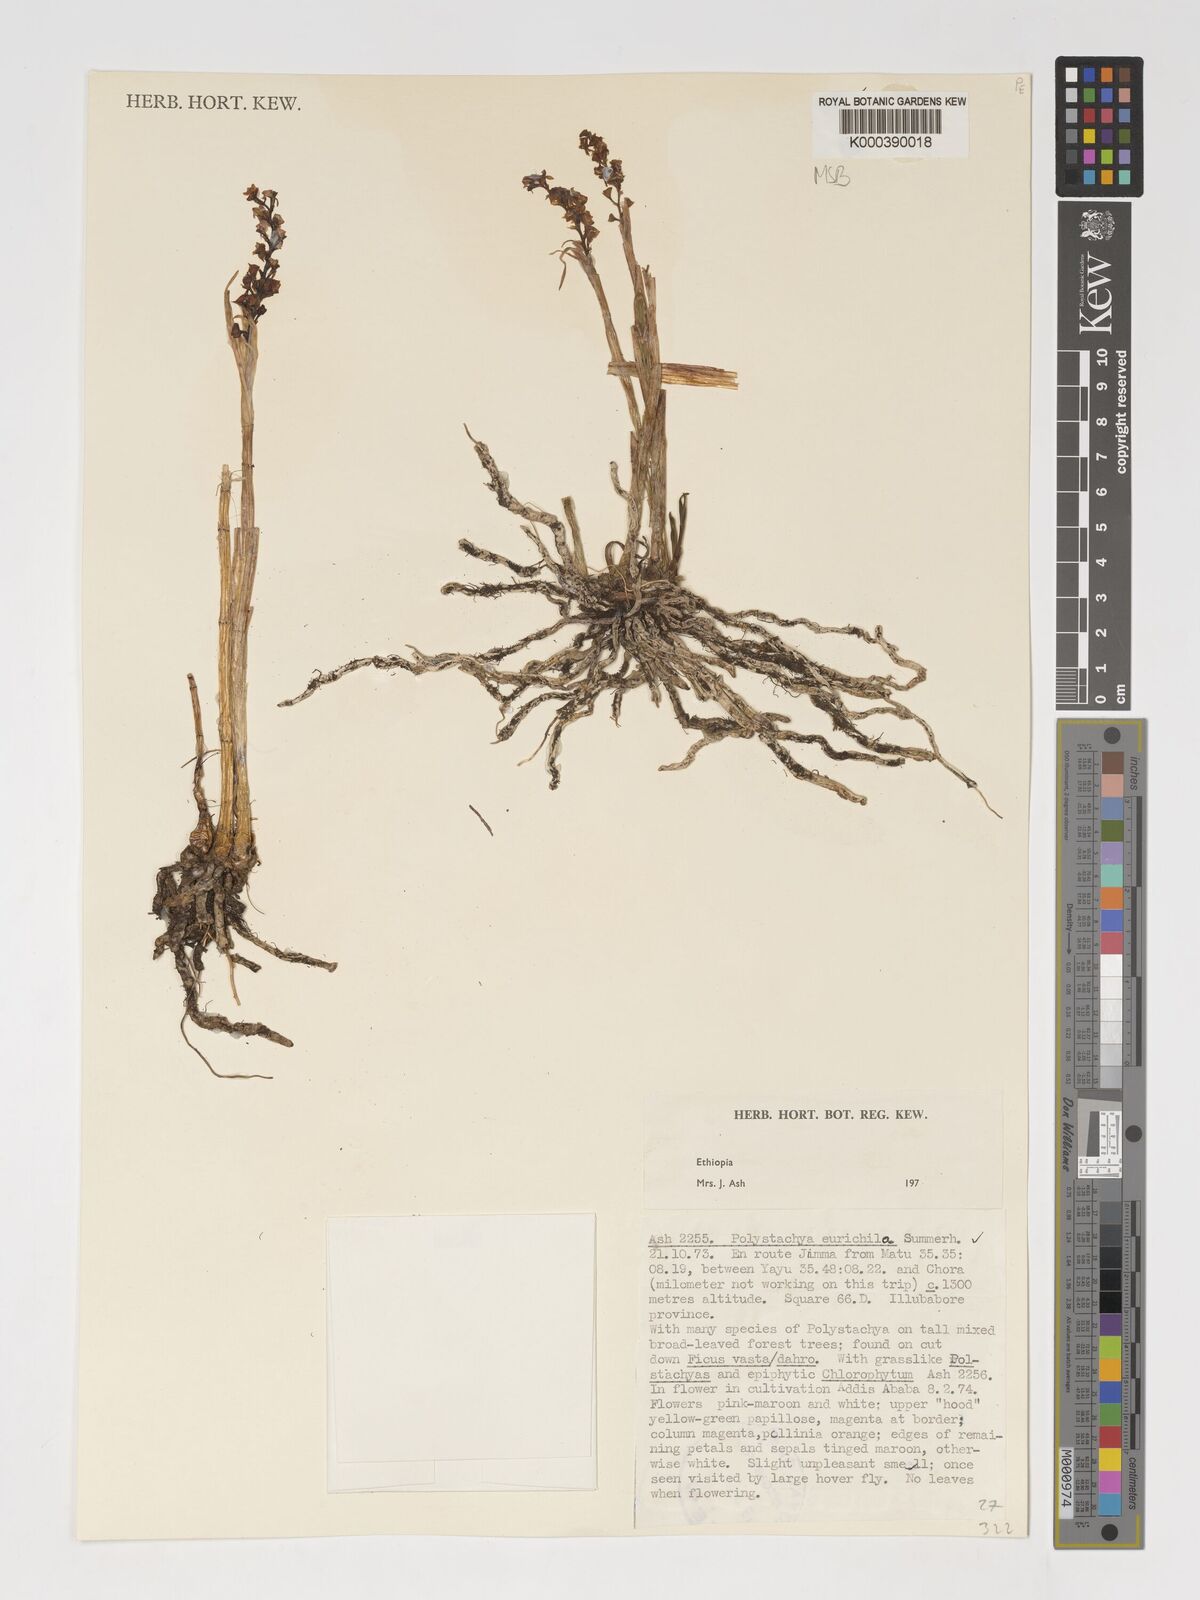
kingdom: Plantae
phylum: Tracheophyta
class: Liliopsida
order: Asparagales
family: Orchidaceae
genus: Polystachya
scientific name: Polystachya eurychila
